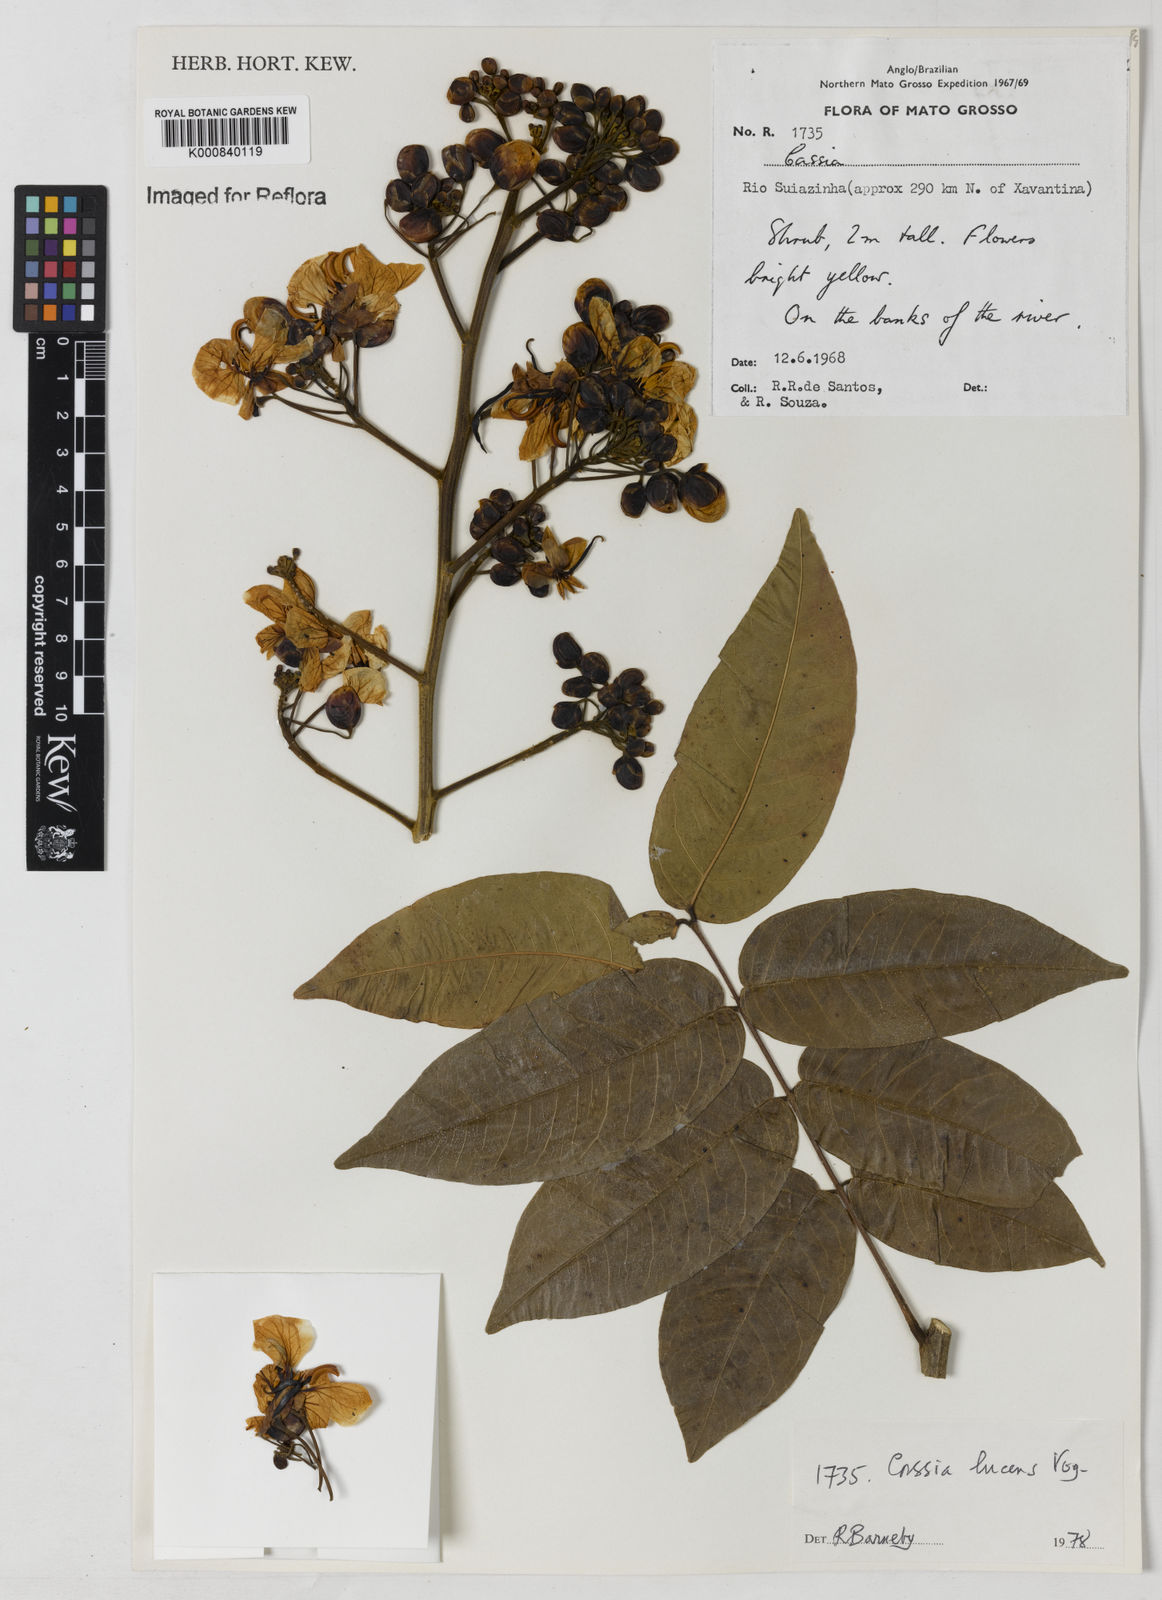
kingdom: Plantae
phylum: Tracheophyta
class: Magnoliopsida
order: Fabales
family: Fabaceae
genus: Senna
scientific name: Senna silvestris
